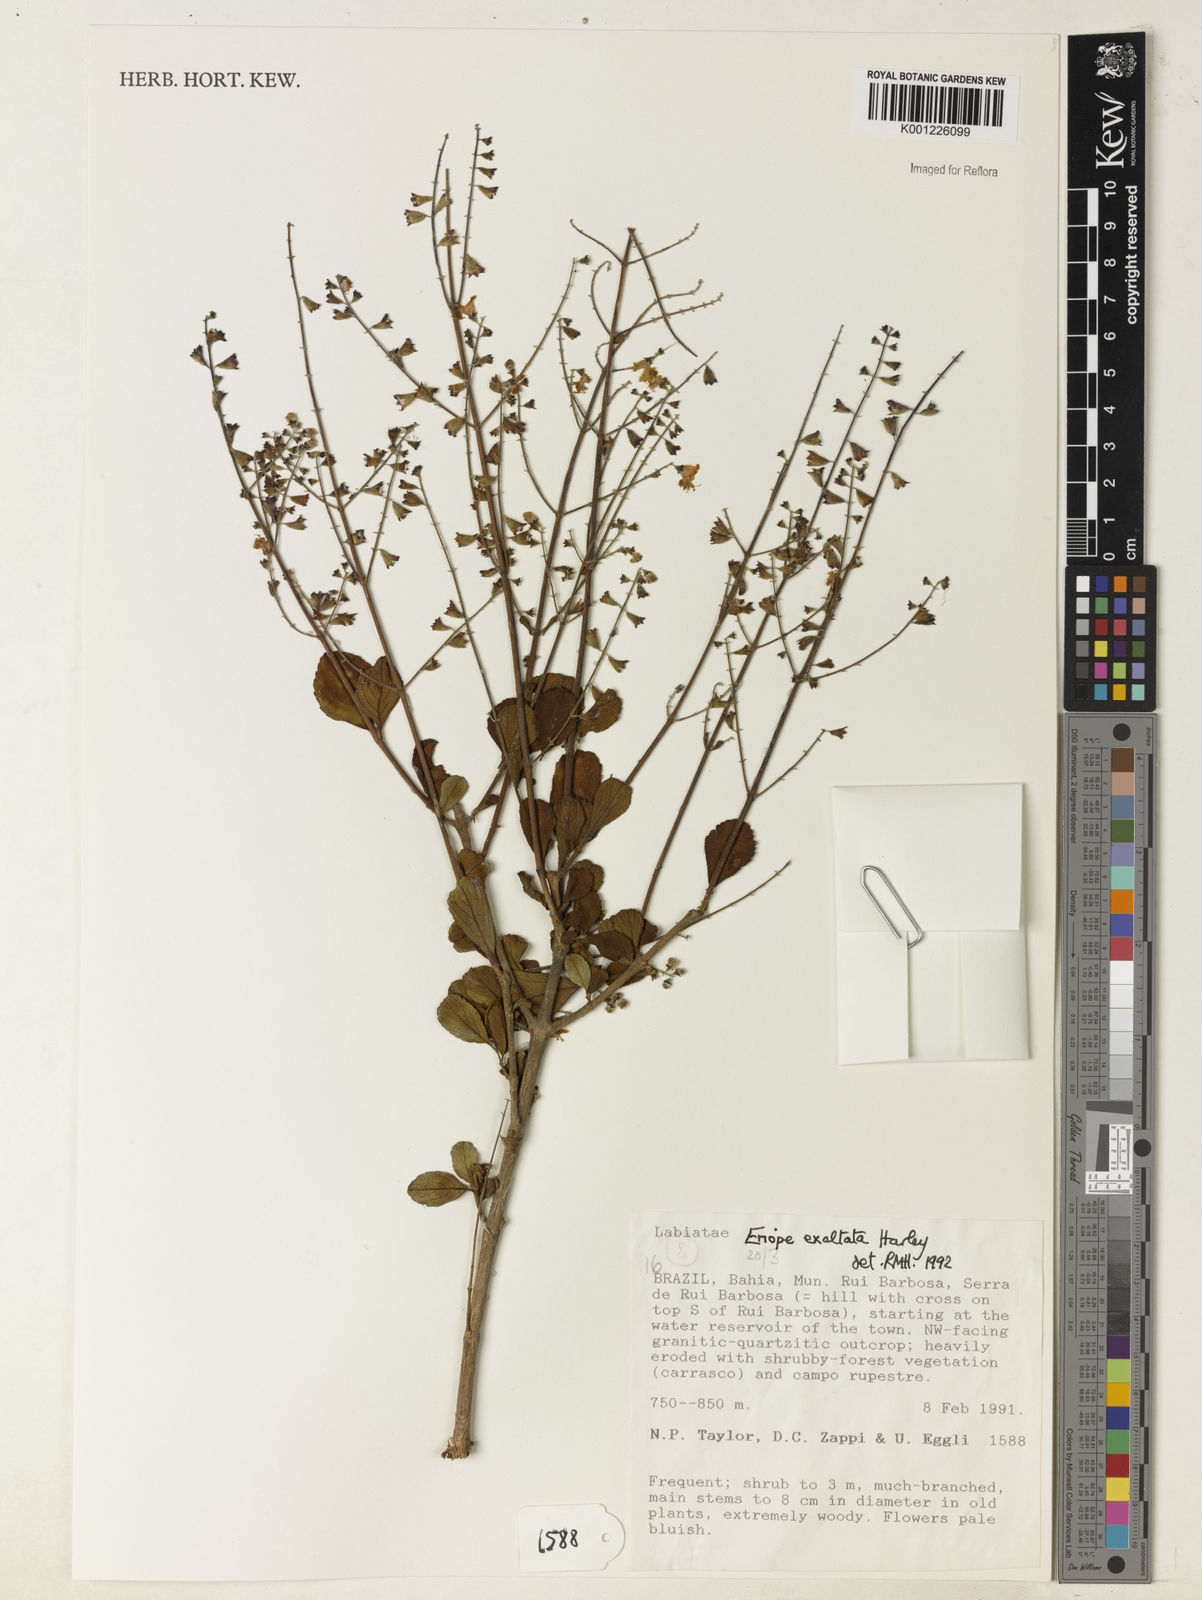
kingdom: Plantae
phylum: Tracheophyta
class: Magnoliopsida
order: Lamiales
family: Lamiaceae
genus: Eriope
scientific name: Eriope exaltata
